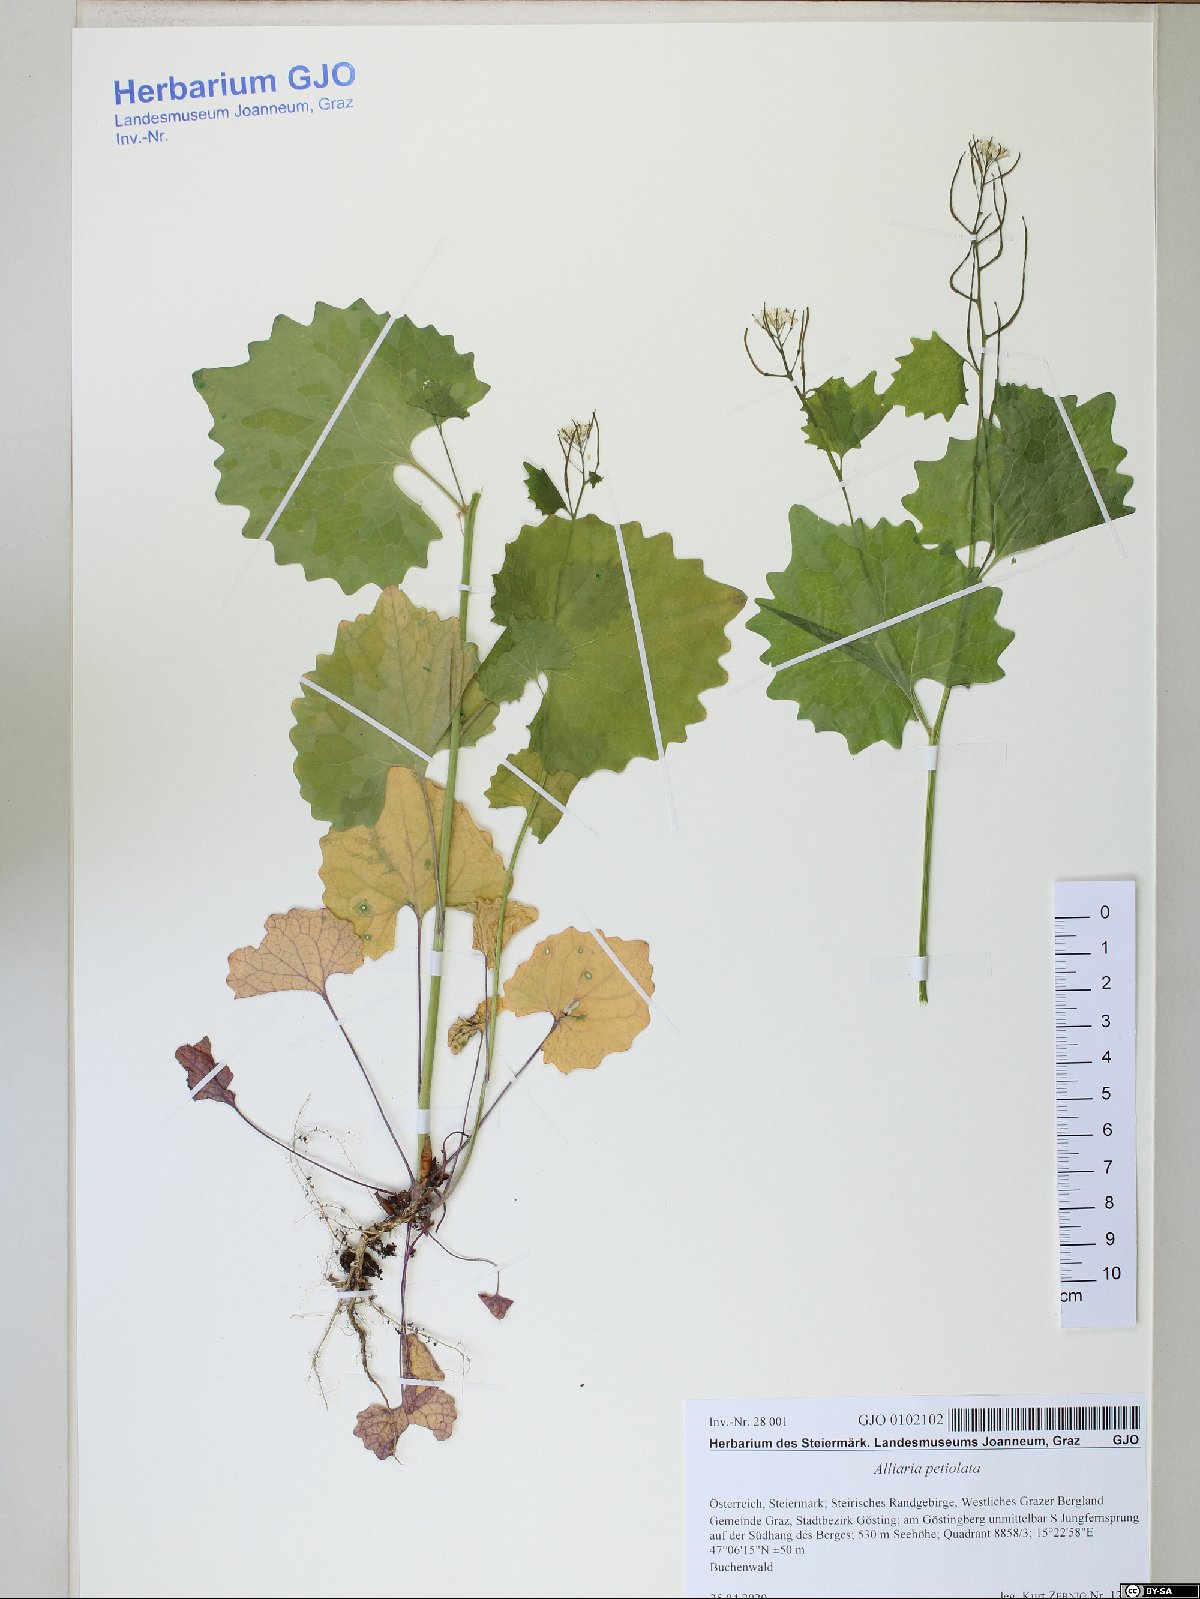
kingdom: Plantae
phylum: Tracheophyta
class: Magnoliopsida
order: Brassicales
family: Brassicaceae
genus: Alliaria
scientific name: Alliaria petiolata
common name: Garlic mustard
